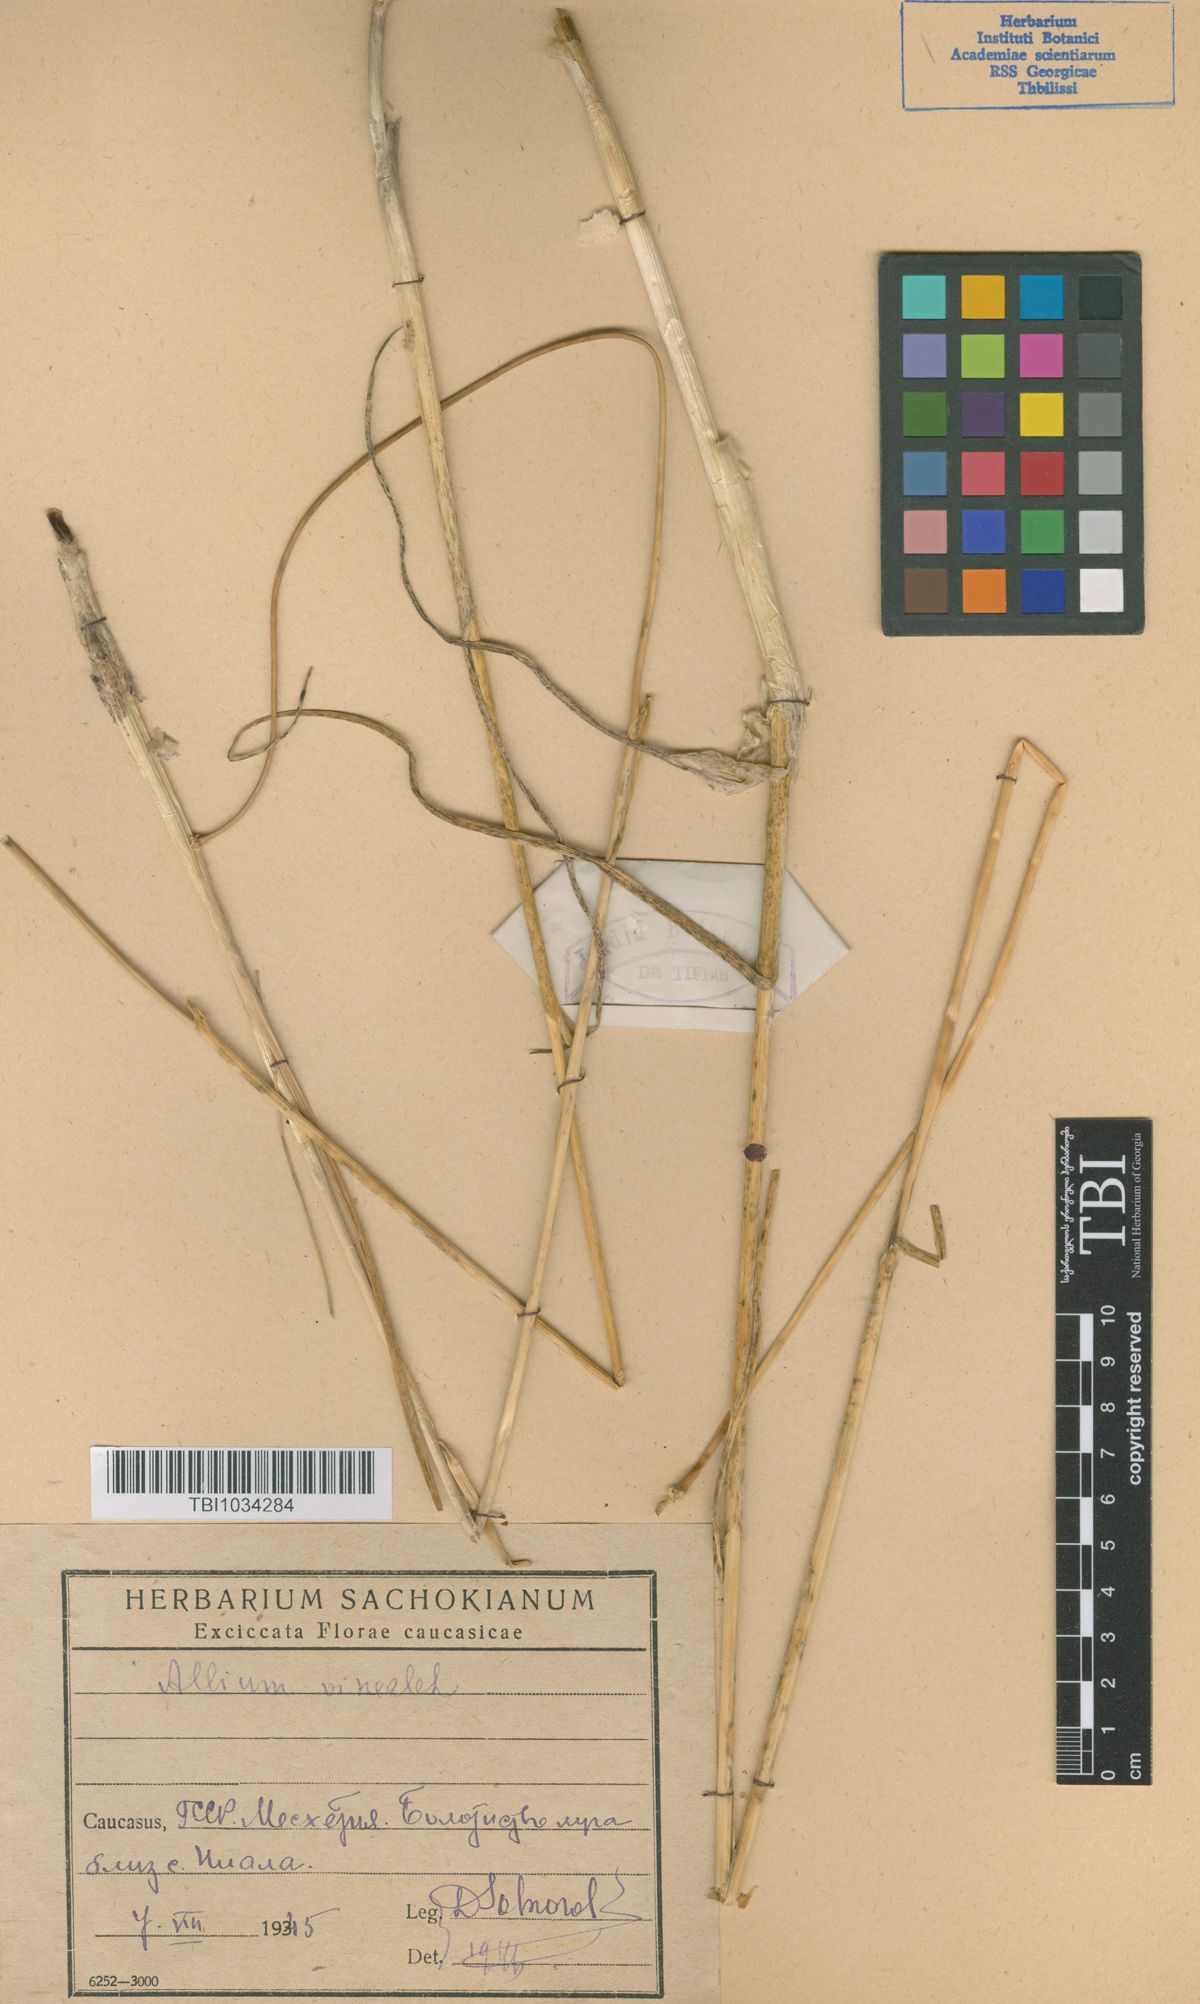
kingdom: Plantae
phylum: Tracheophyta
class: Liliopsida
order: Asparagales
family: Amaryllidaceae
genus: Allium
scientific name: Allium vineale
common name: Crow garlic
